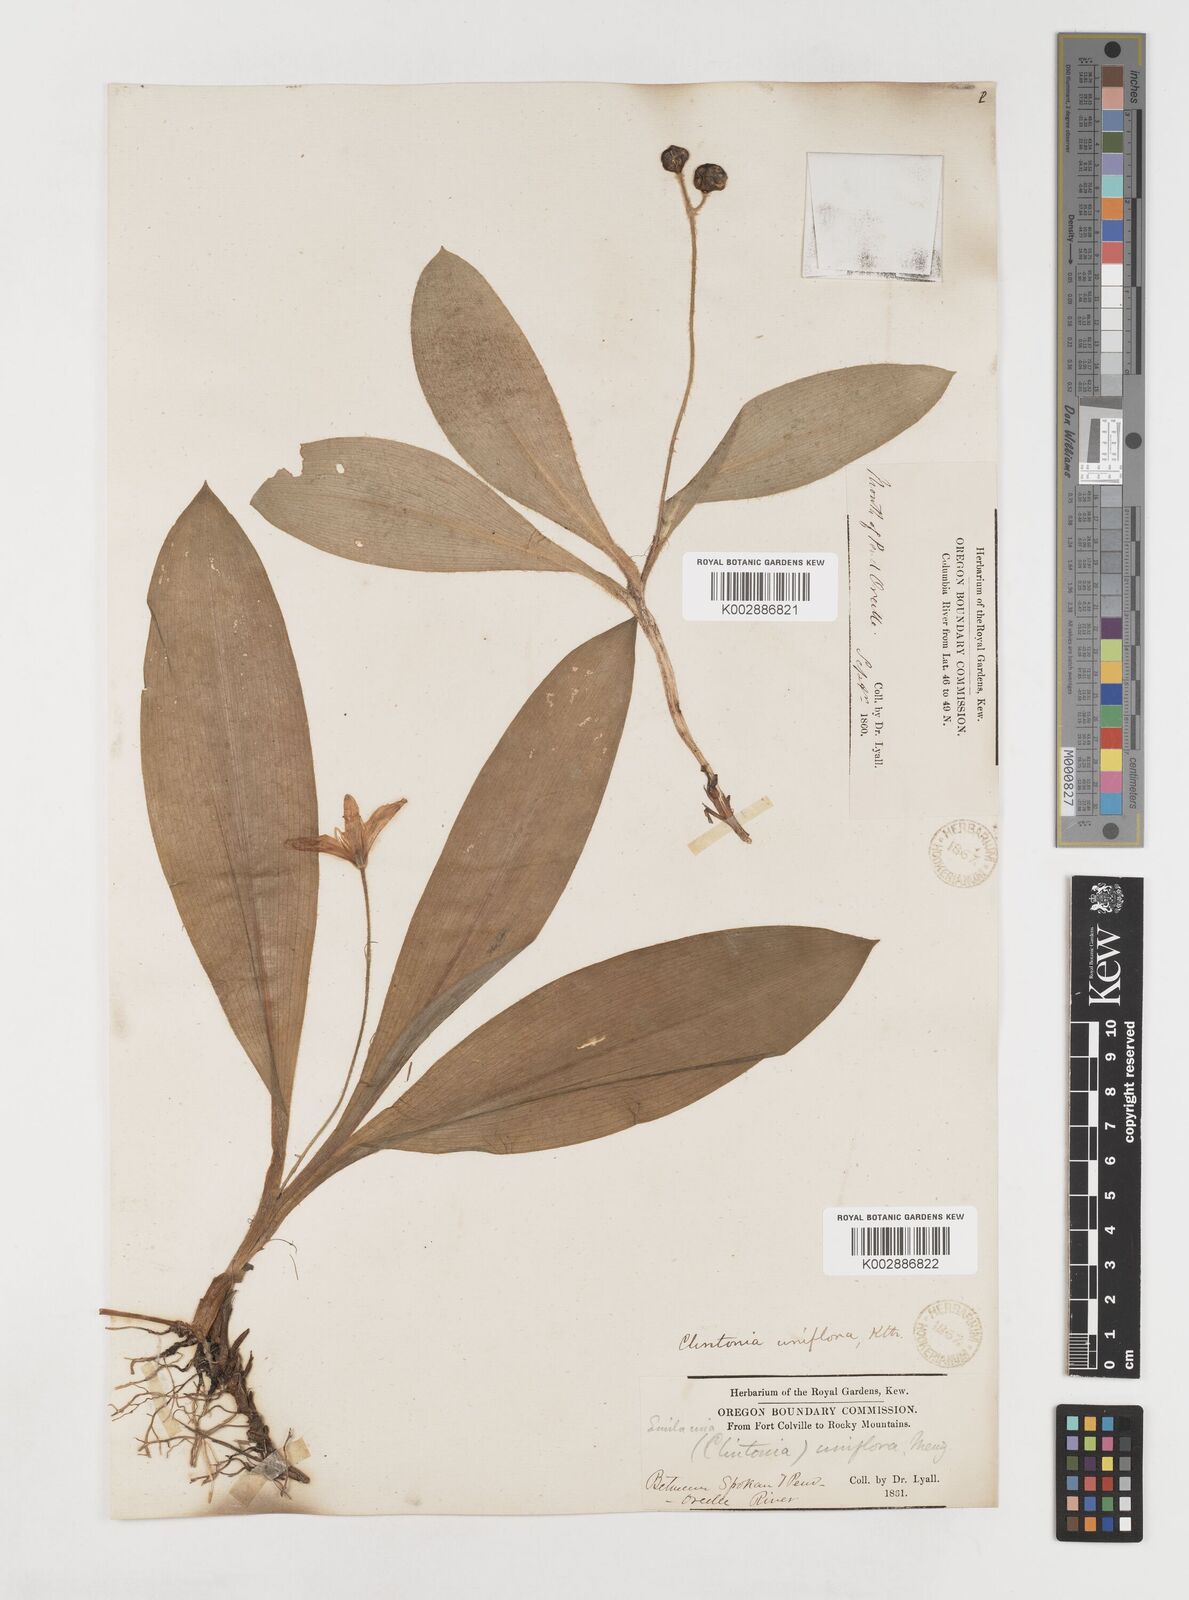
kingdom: Plantae
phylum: Tracheophyta
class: Liliopsida
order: Liliales
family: Liliaceae
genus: Clintonia
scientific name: Clintonia uniflora
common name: Queen's cup
